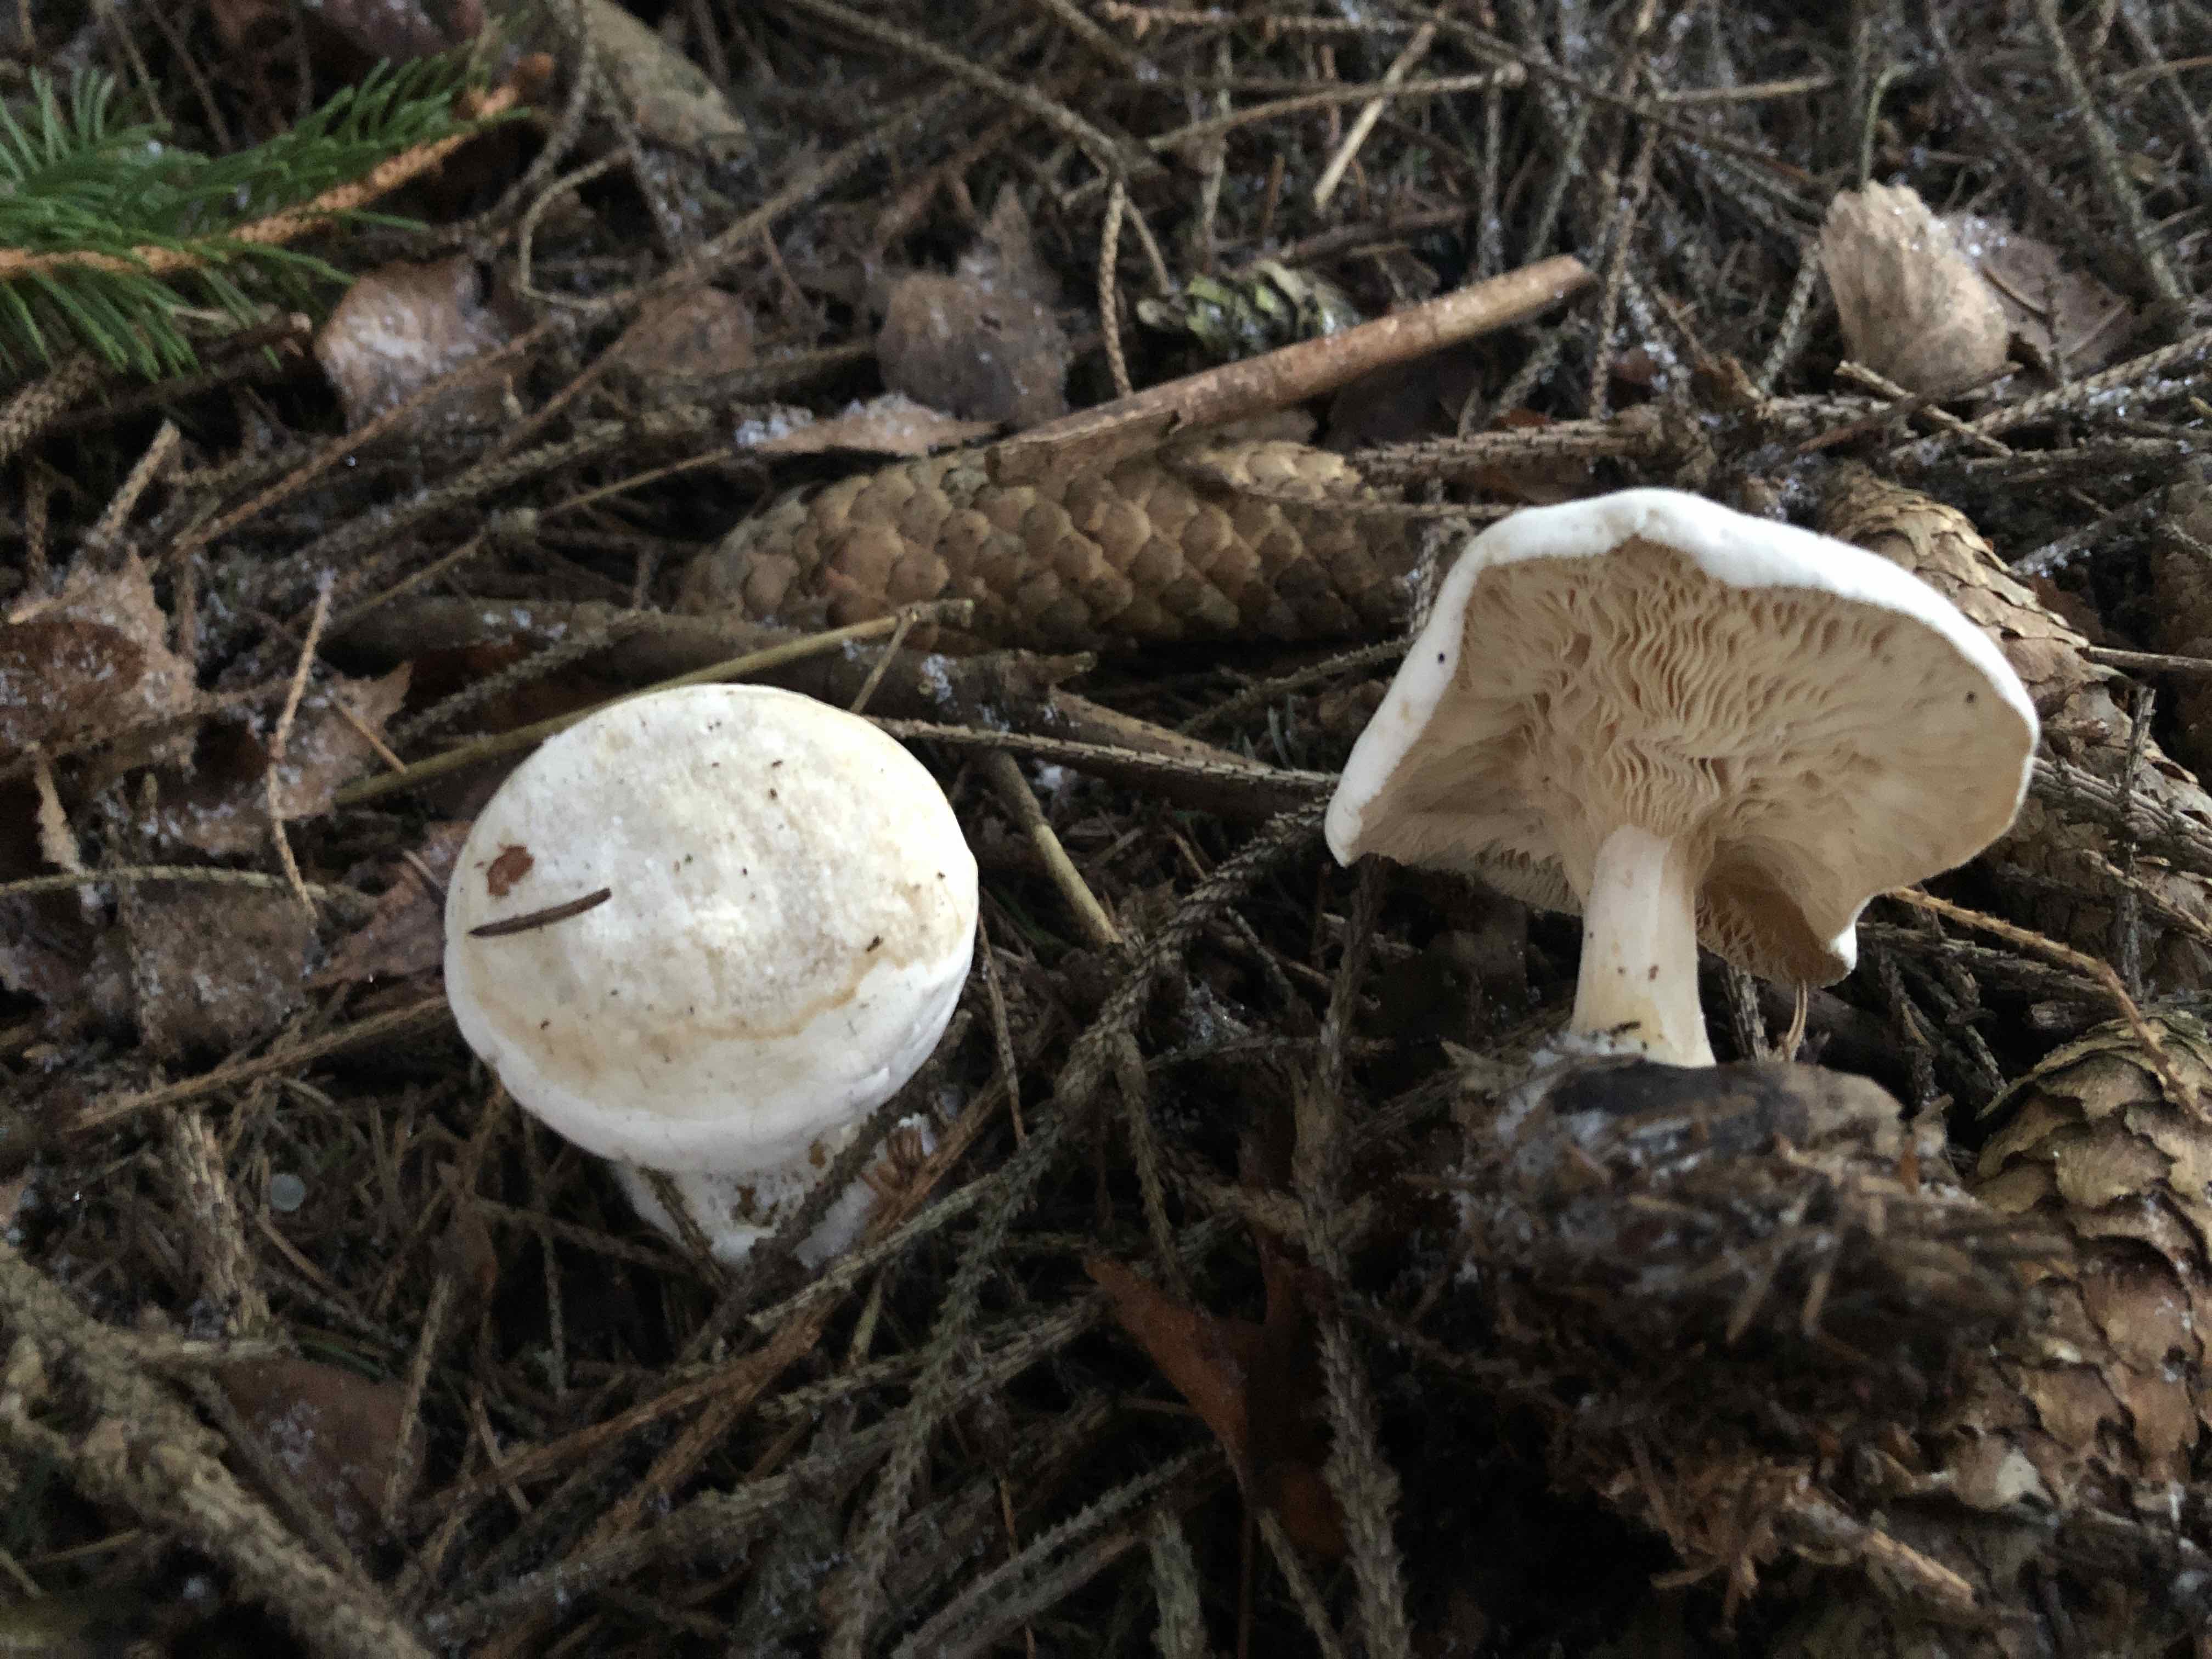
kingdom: Fungi
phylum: Basidiomycota
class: Agaricomycetes
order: Agaricales
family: Entolomataceae
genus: Clitopilus
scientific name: Clitopilus prunulus
